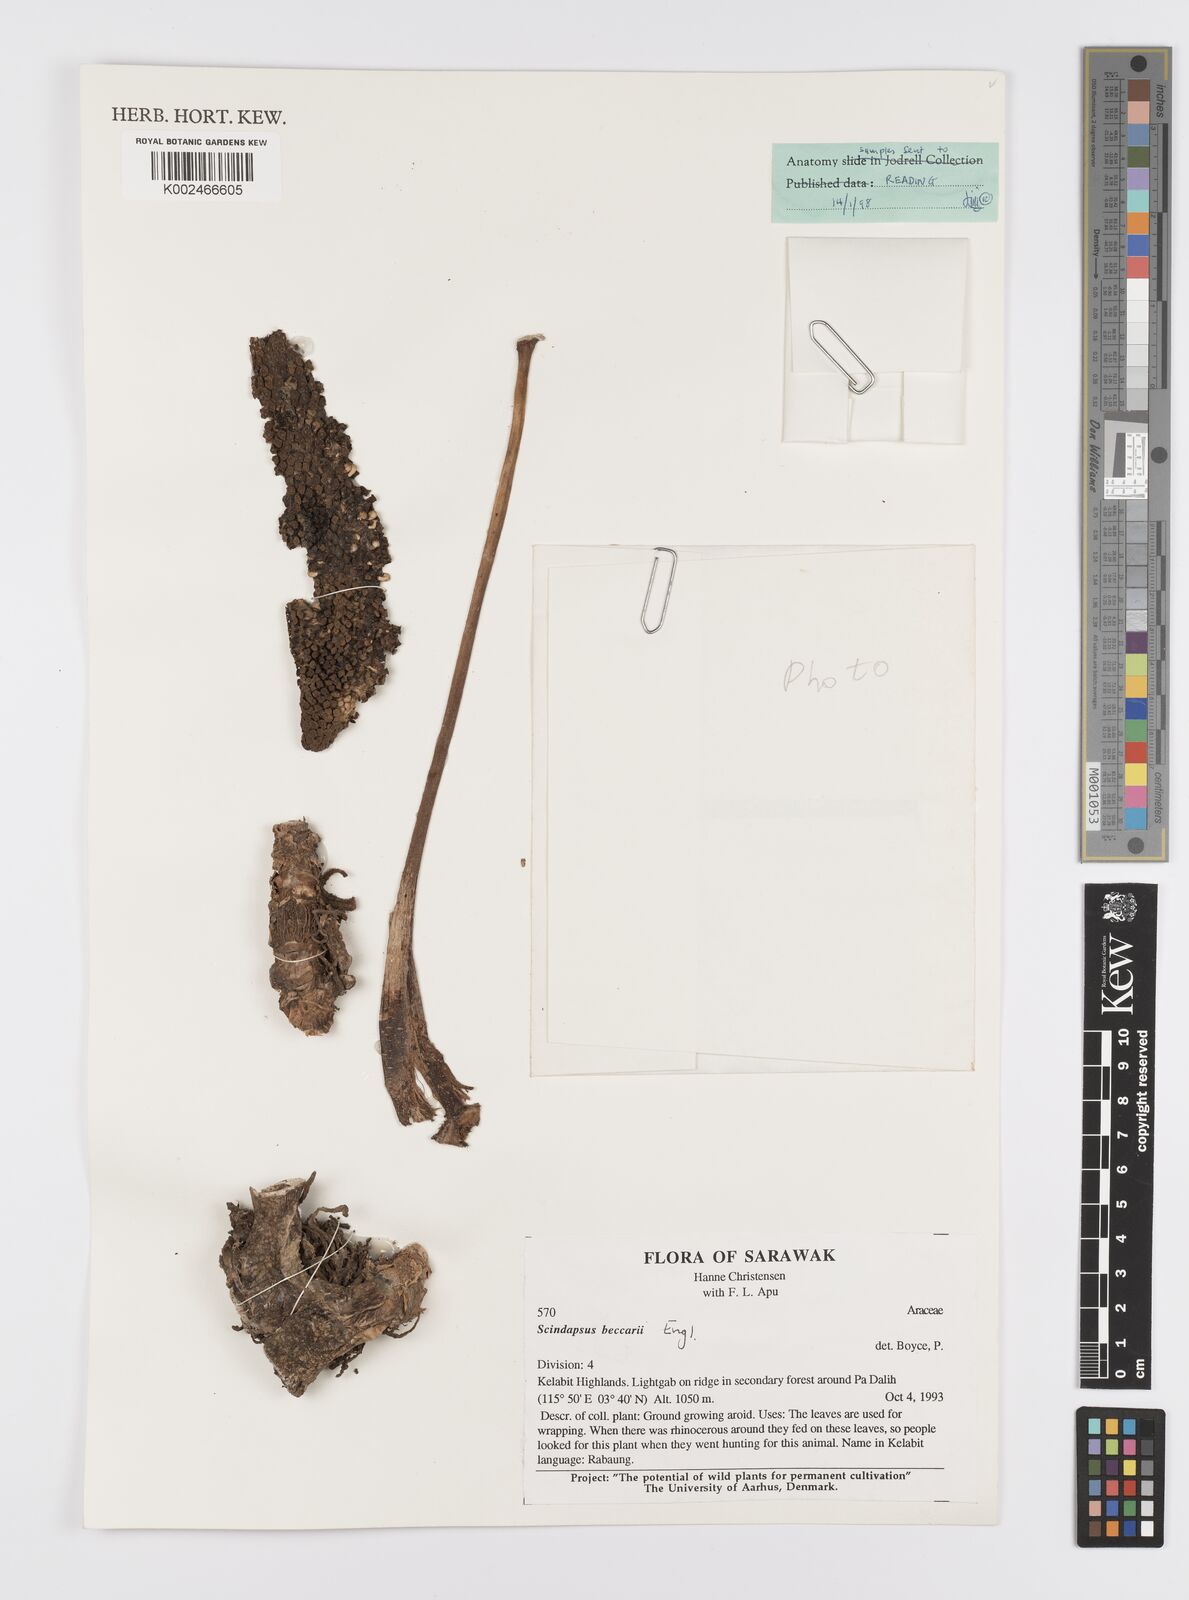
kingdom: Plantae
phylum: Tracheophyta
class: Liliopsida
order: Alismatales
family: Araceae
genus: Scindapsus
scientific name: Scindapsus beccarii
